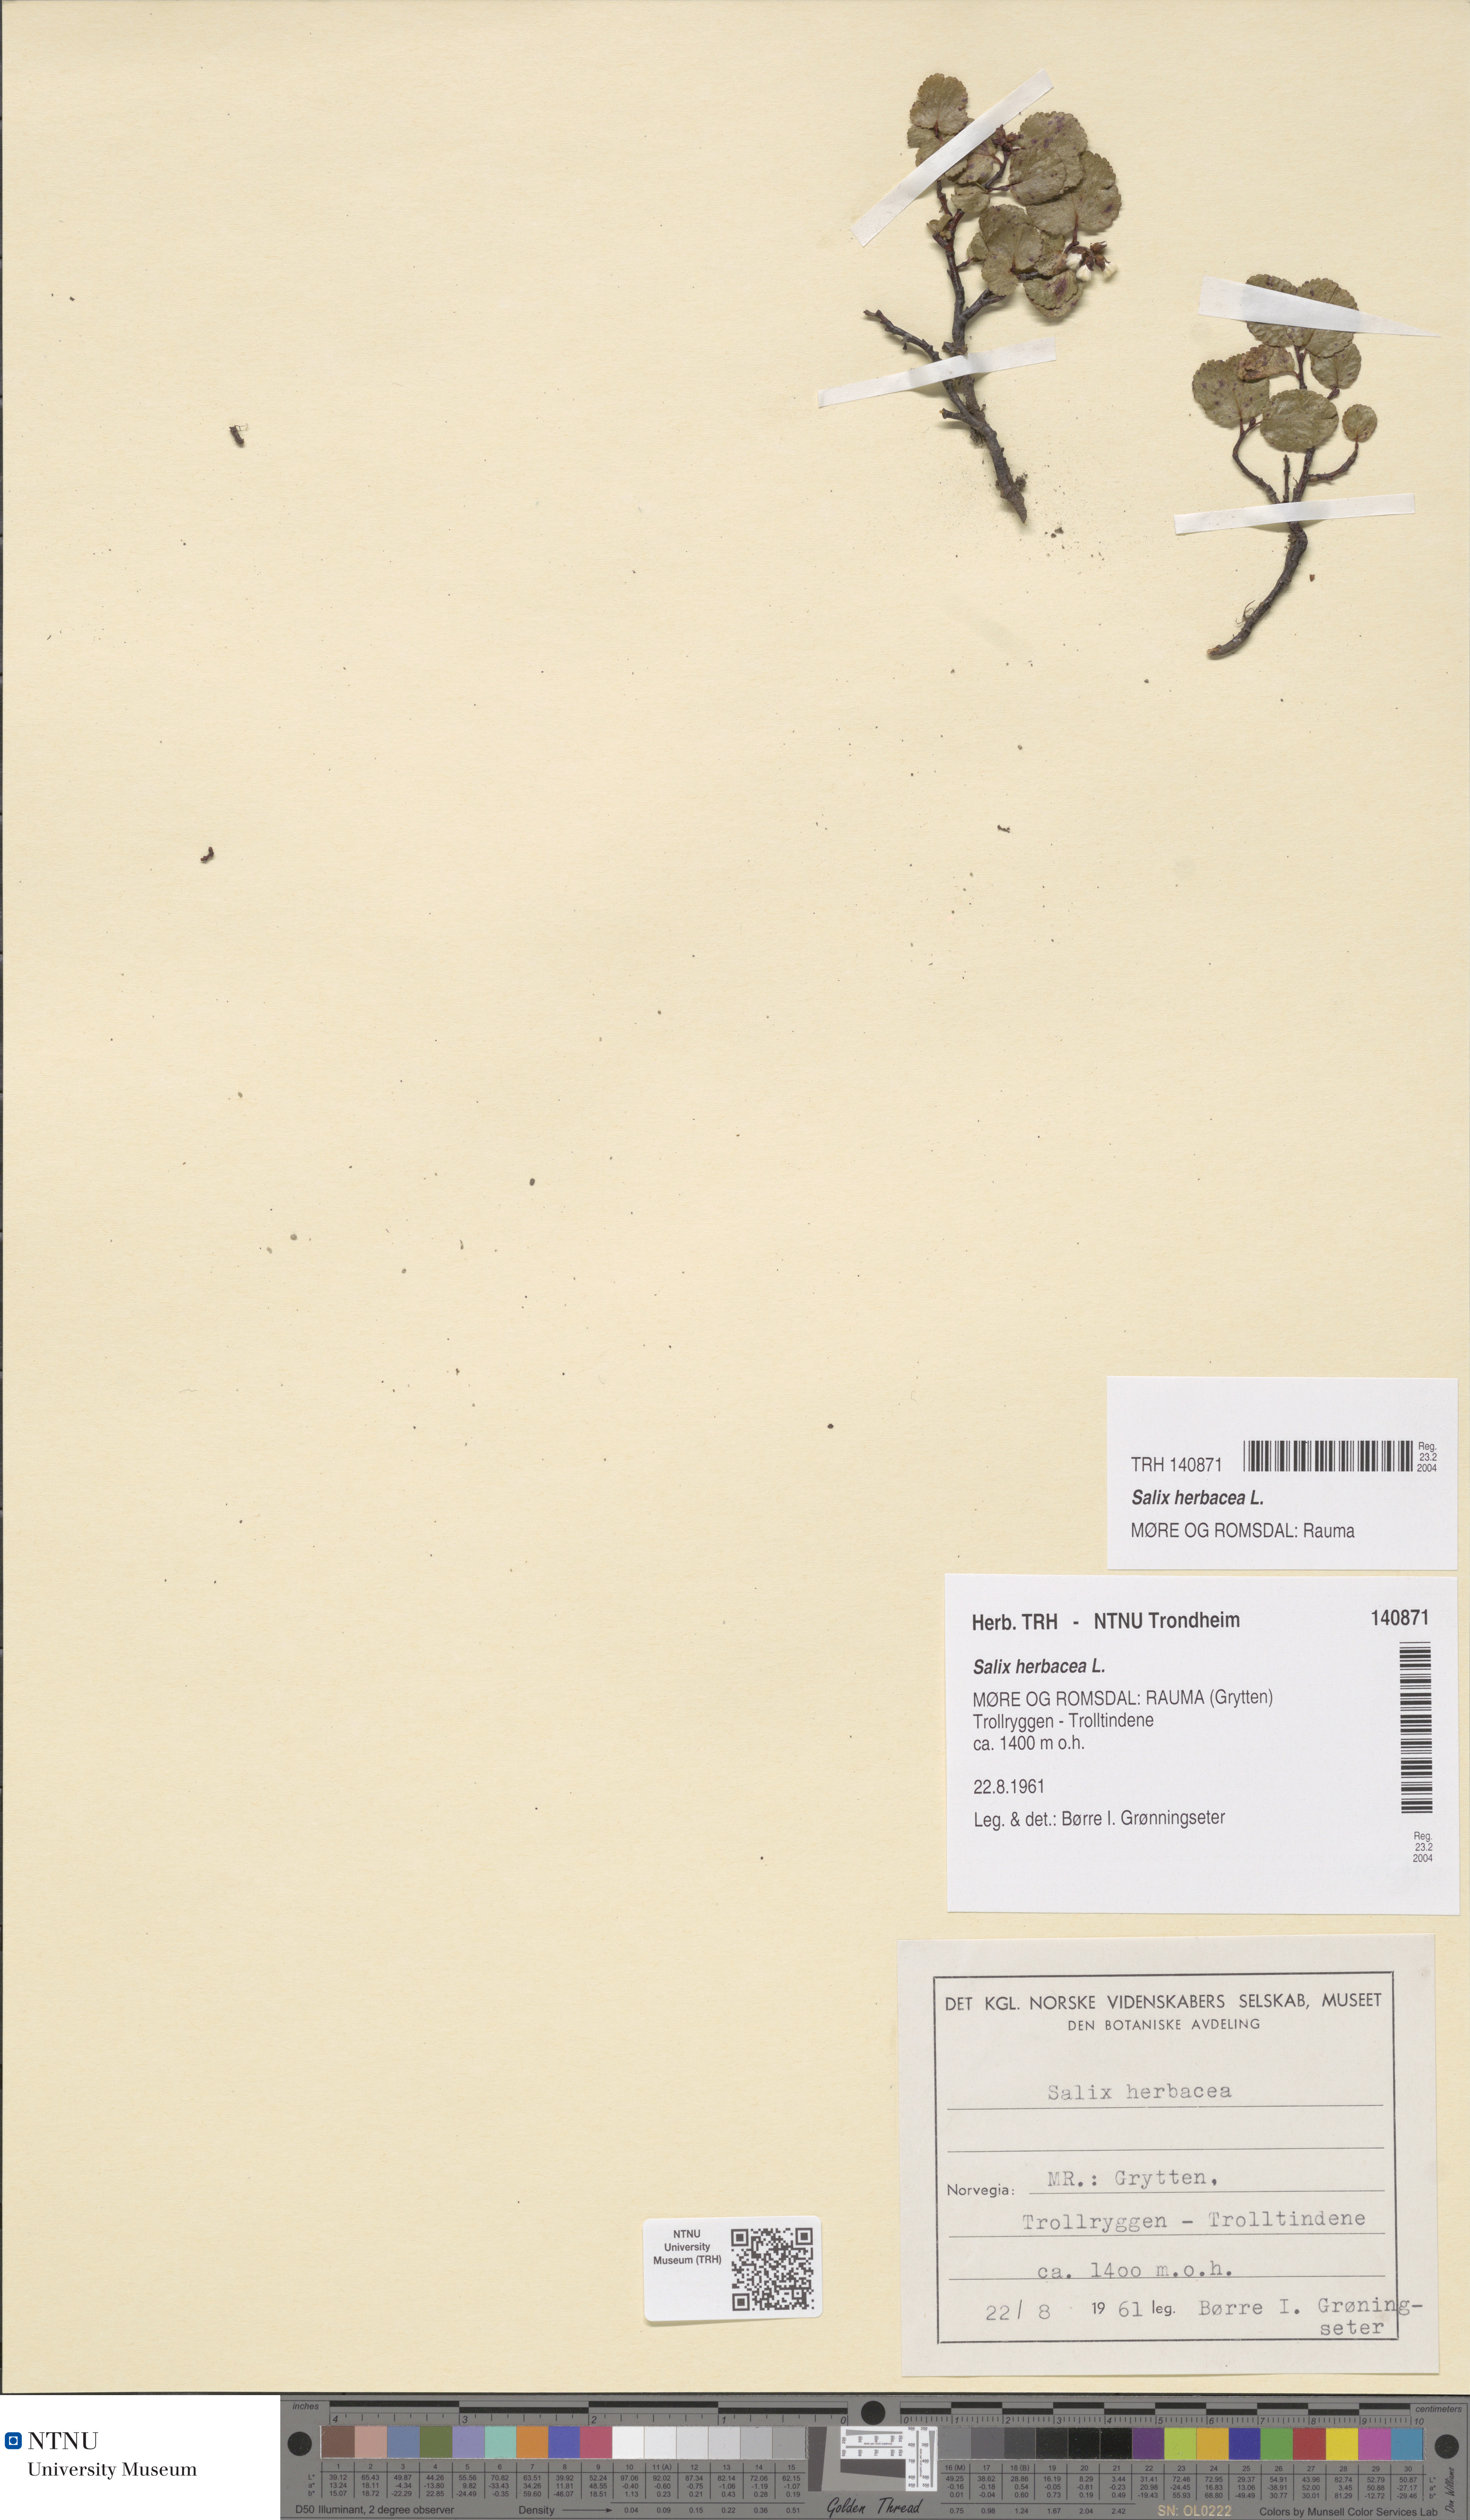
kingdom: Plantae
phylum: Tracheophyta
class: Magnoliopsida
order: Malpighiales
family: Salicaceae
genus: Salix
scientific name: Salix herbacea
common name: Dwarf willow
